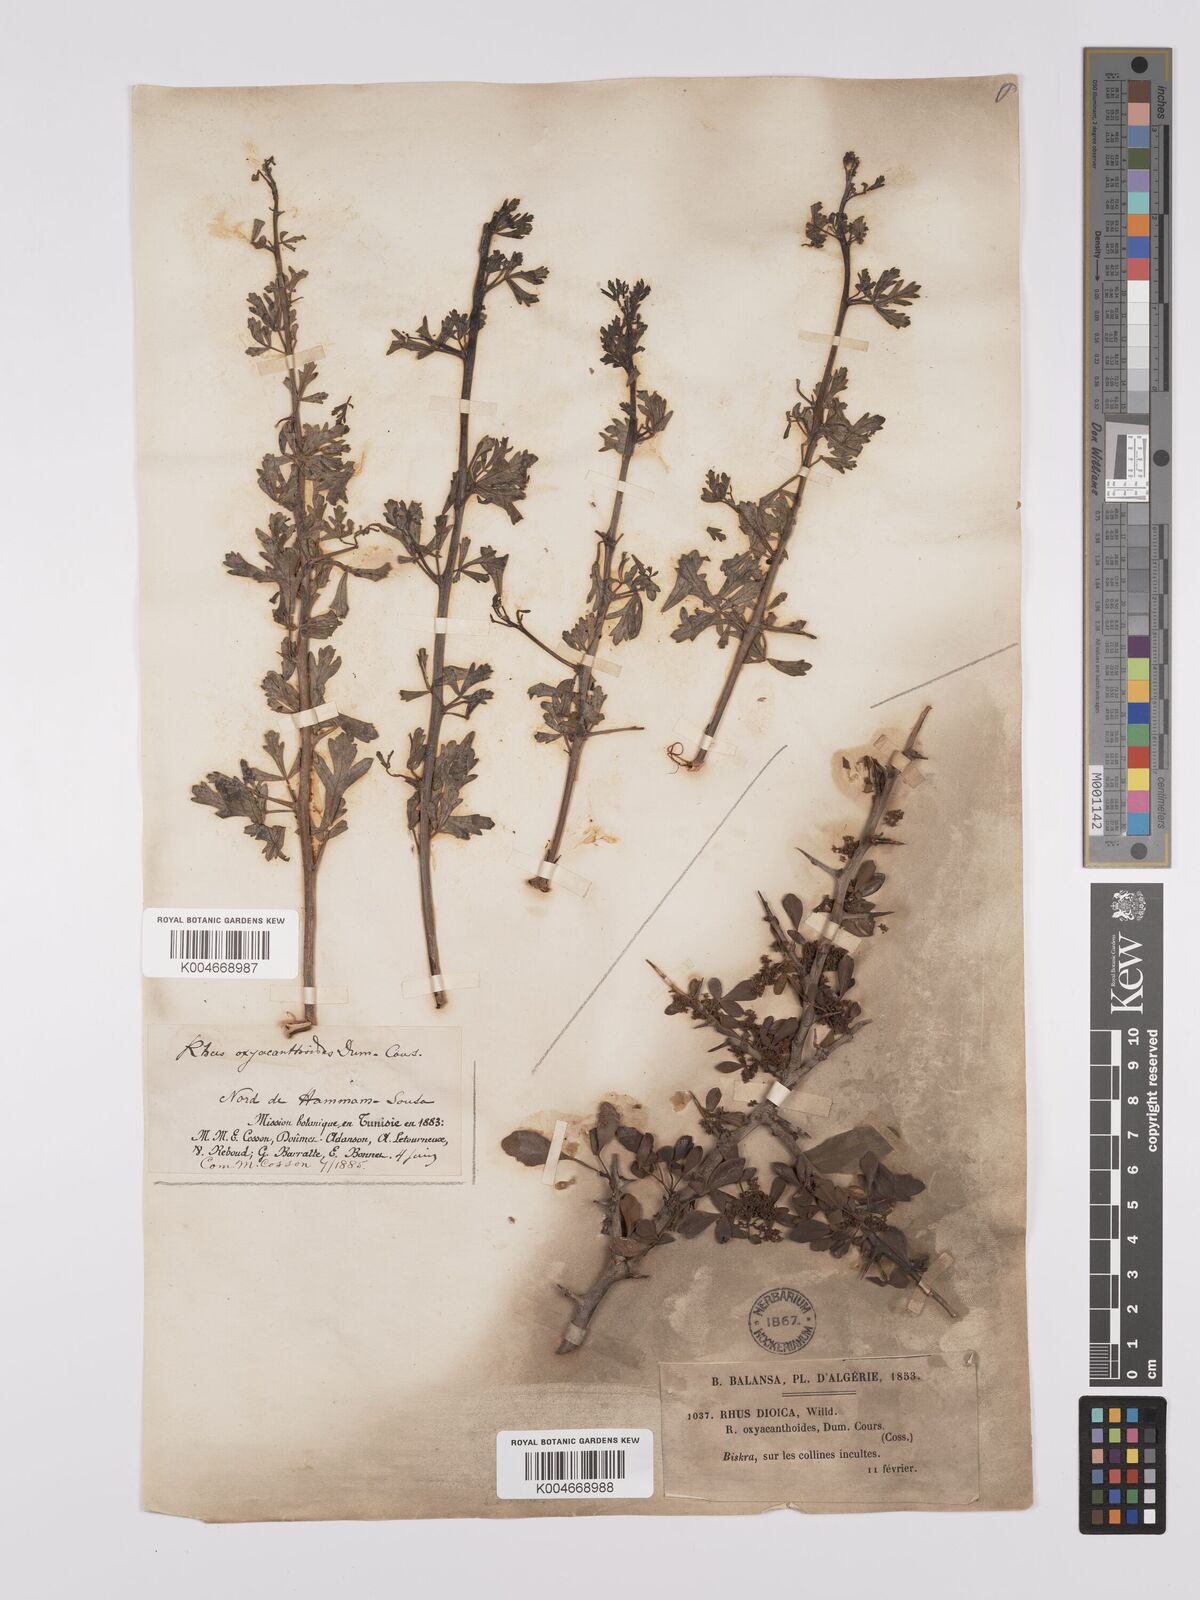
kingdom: Plantae
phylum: Tracheophyta
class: Magnoliopsida
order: Sapindales
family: Anacardiaceae
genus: Rhus
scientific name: Rhus
